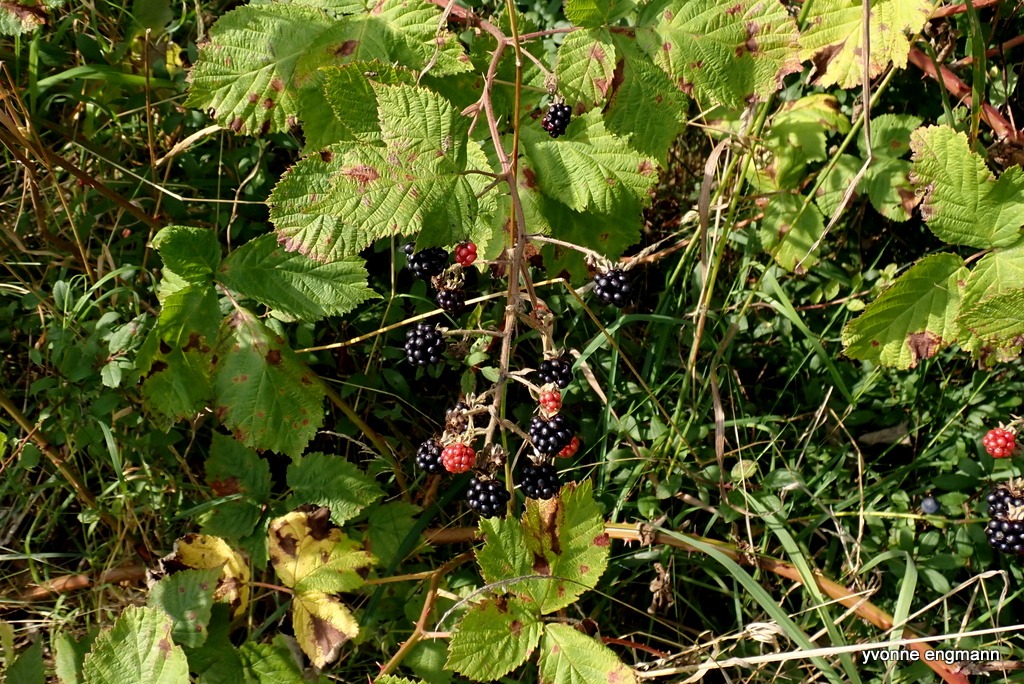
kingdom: Plantae
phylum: Tracheophyta
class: Magnoliopsida
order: Rosales
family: Rosaceae
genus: Rubus
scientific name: Rubus
